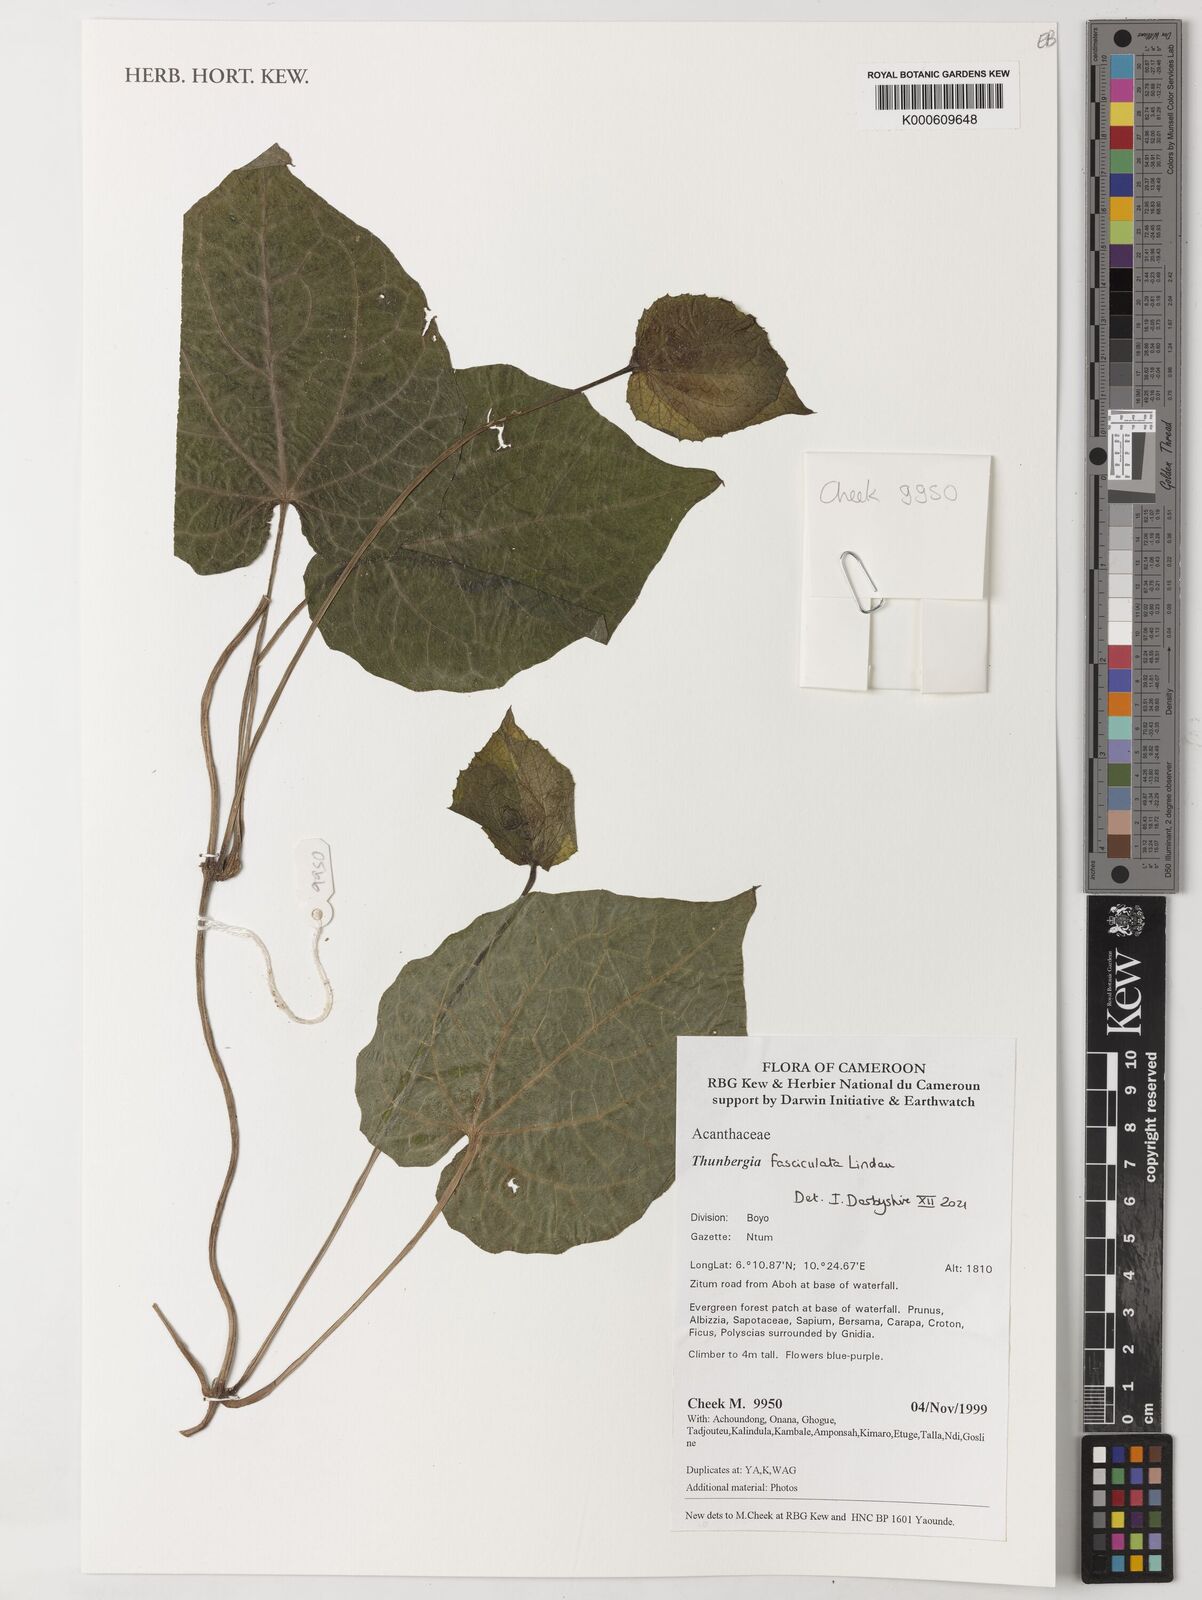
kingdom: Plantae
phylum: Tracheophyta
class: Magnoliopsida
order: Lamiales
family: Acanthaceae
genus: Thunbergia
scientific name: Thunbergia fasciculata
